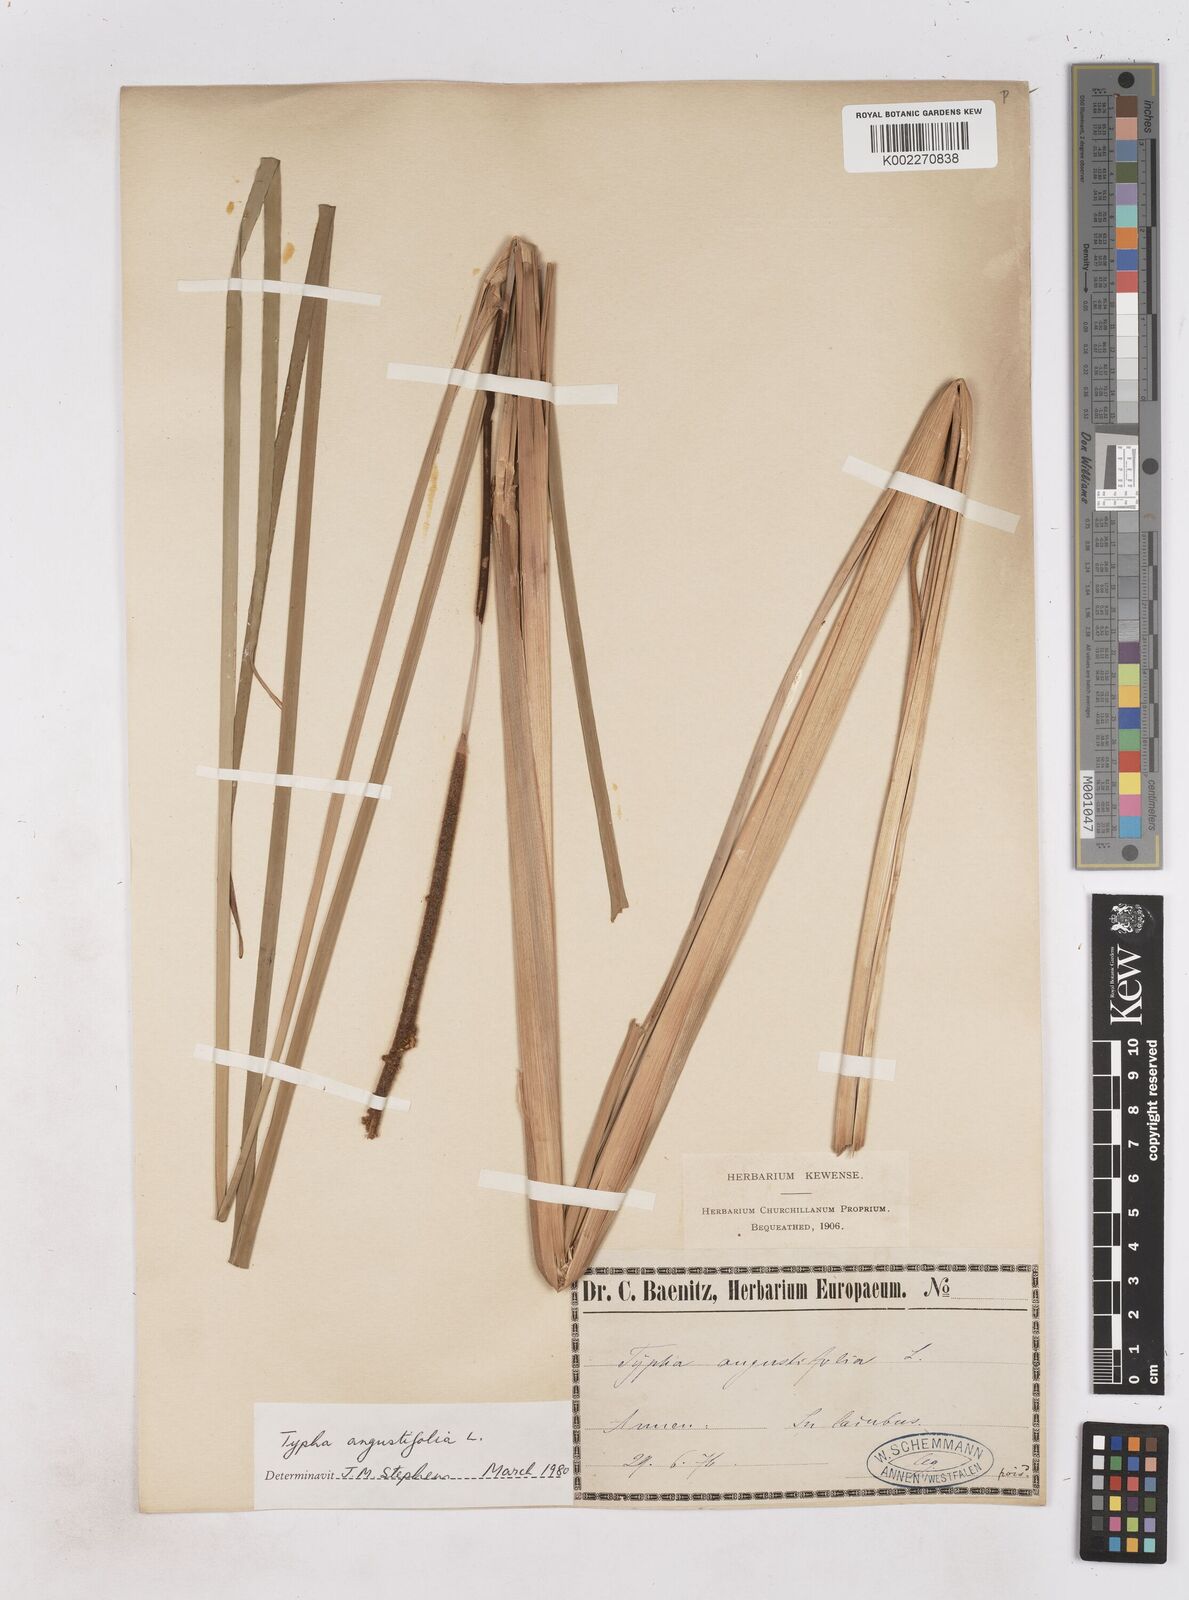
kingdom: Plantae
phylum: Tracheophyta
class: Liliopsida
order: Poales
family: Typhaceae
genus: Typha
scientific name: Typha angustifolia
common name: Lesser bulrush
